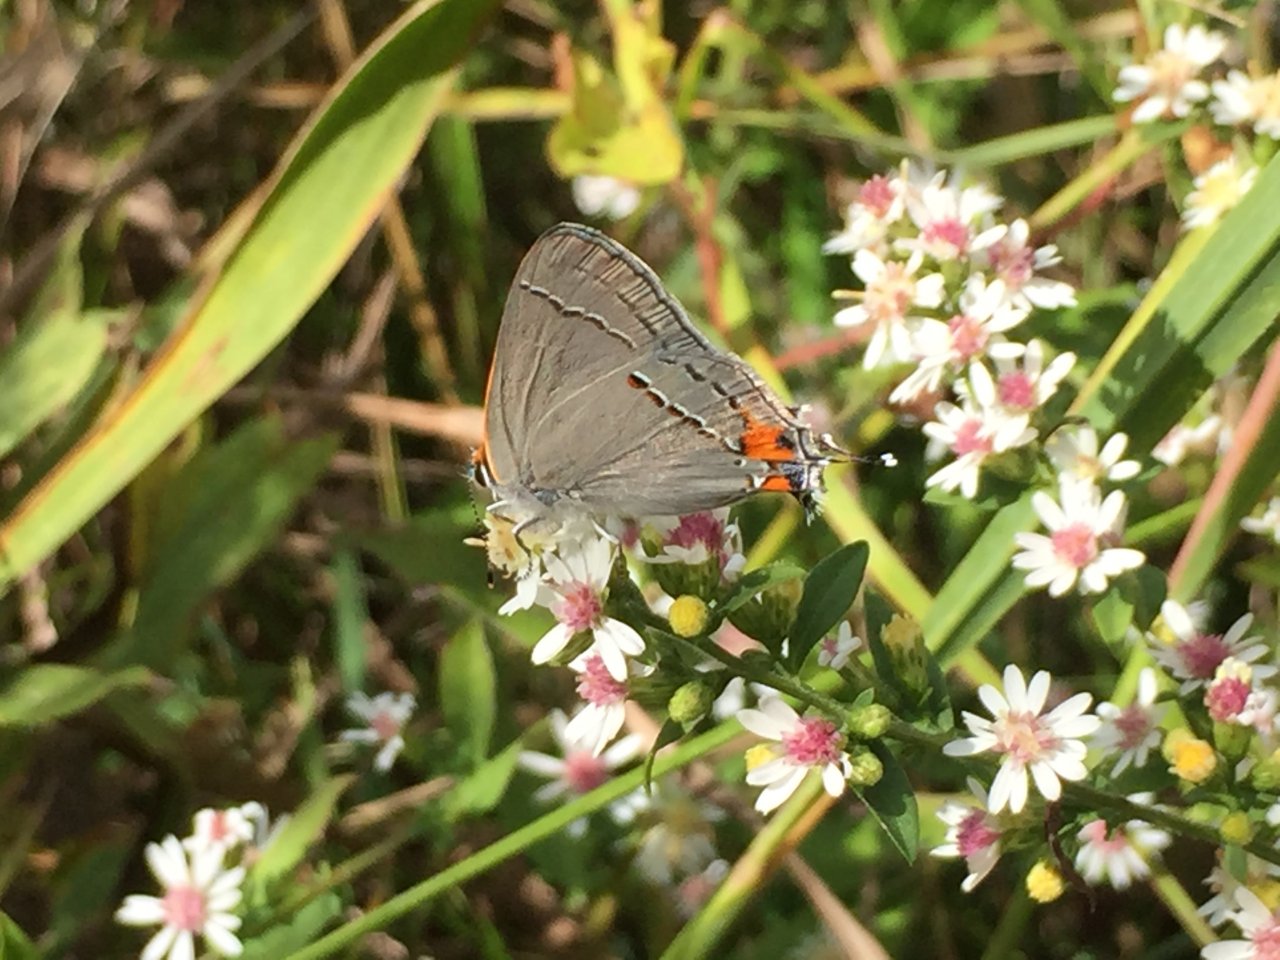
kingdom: Animalia
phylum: Arthropoda
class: Insecta
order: Lepidoptera
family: Lycaenidae
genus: Strymon
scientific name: Strymon melinus
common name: Gray Hairstreak
